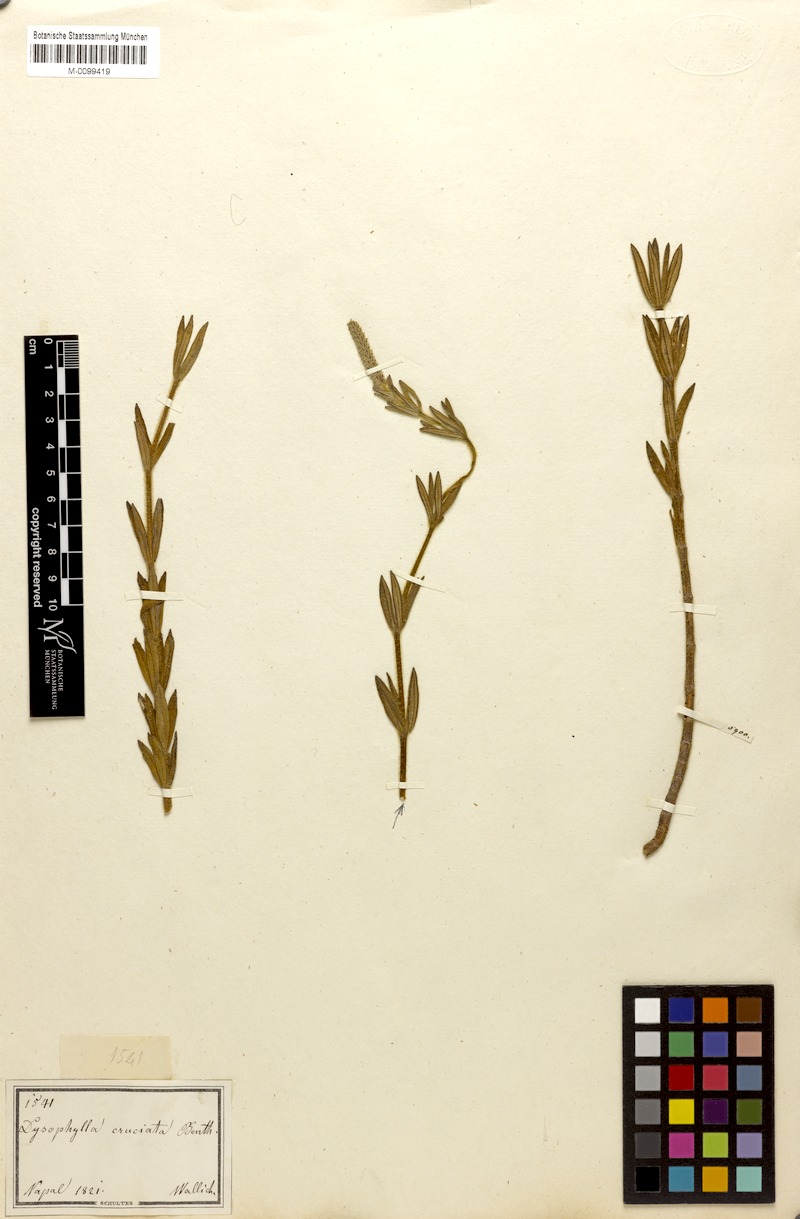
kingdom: Plantae
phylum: Tracheophyta
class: Magnoliopsida
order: Lamiales
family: Lamiaceae
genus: Pogostemon
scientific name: Pogostemon cruciatus
